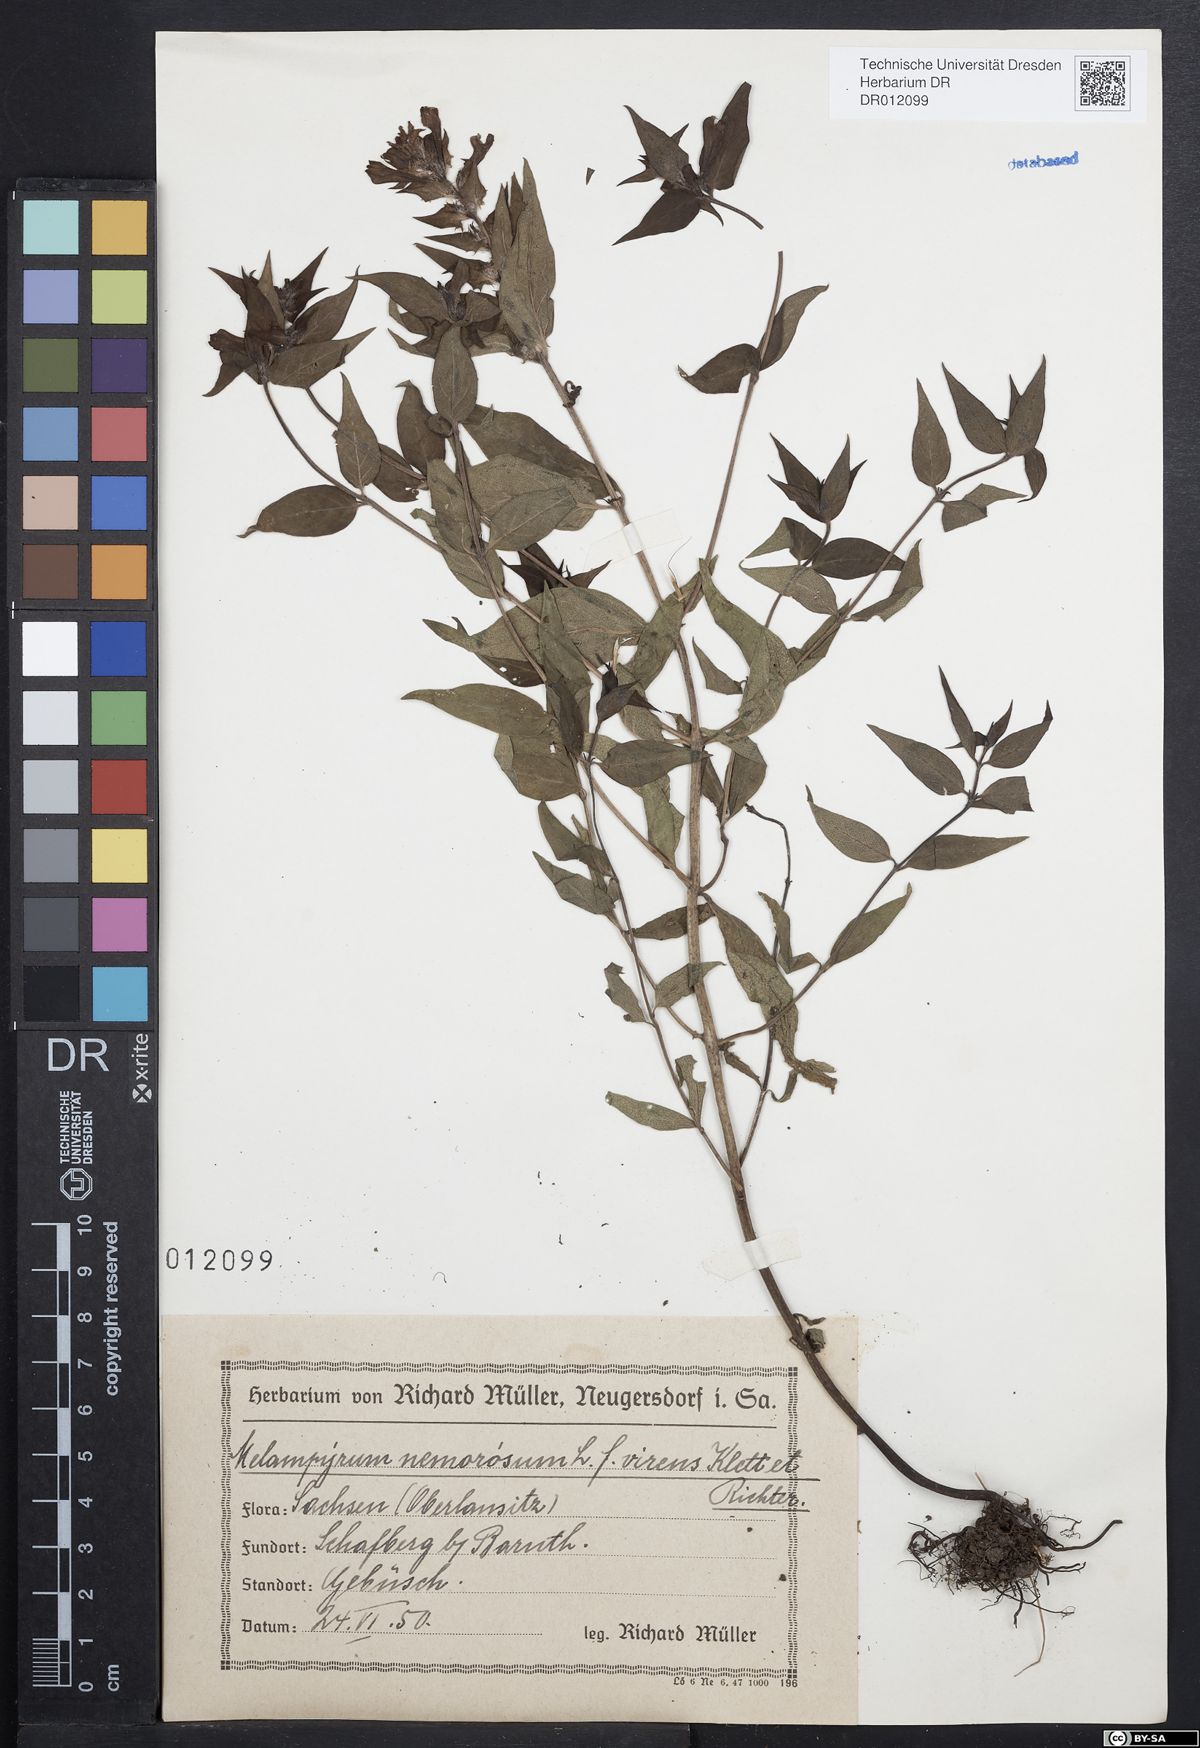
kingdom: Plantae
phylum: Tracheophyta
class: Magnoliopsida
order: Lamiales
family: Orobanchaceae
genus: Melampyrum
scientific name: Melampyrum nemorosum
